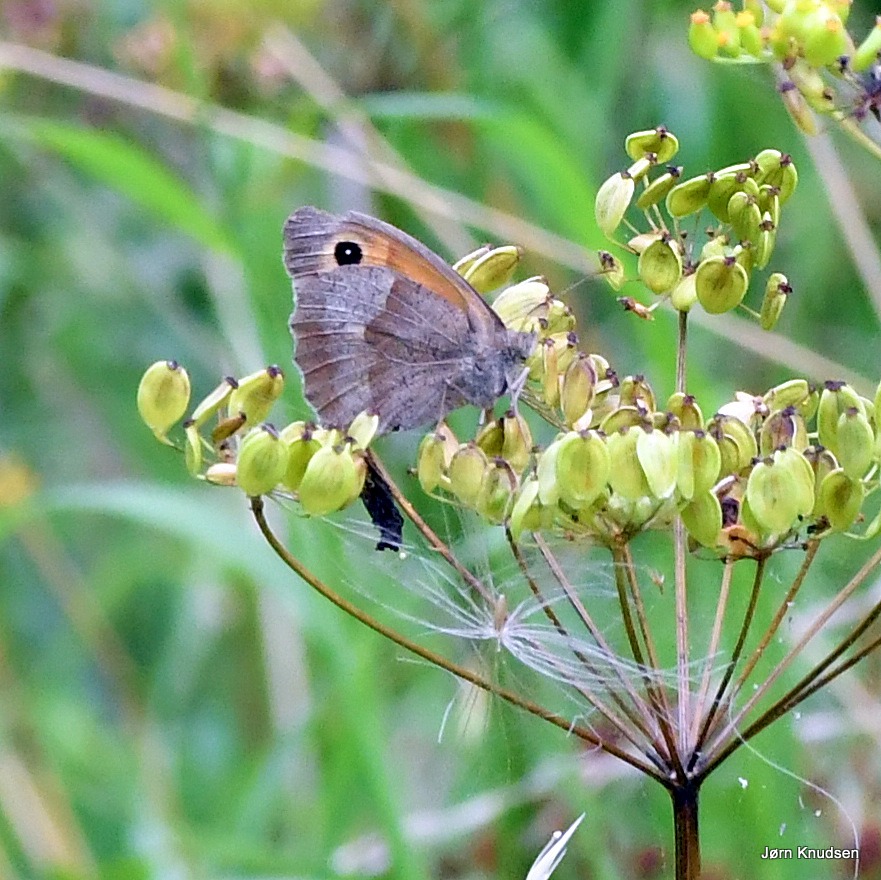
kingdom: Animalia
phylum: Arthropoda
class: Insecta
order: Lepidoptera
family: Nymphalidae
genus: Maniola
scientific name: Maniola jurtina
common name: Græsrandøje
